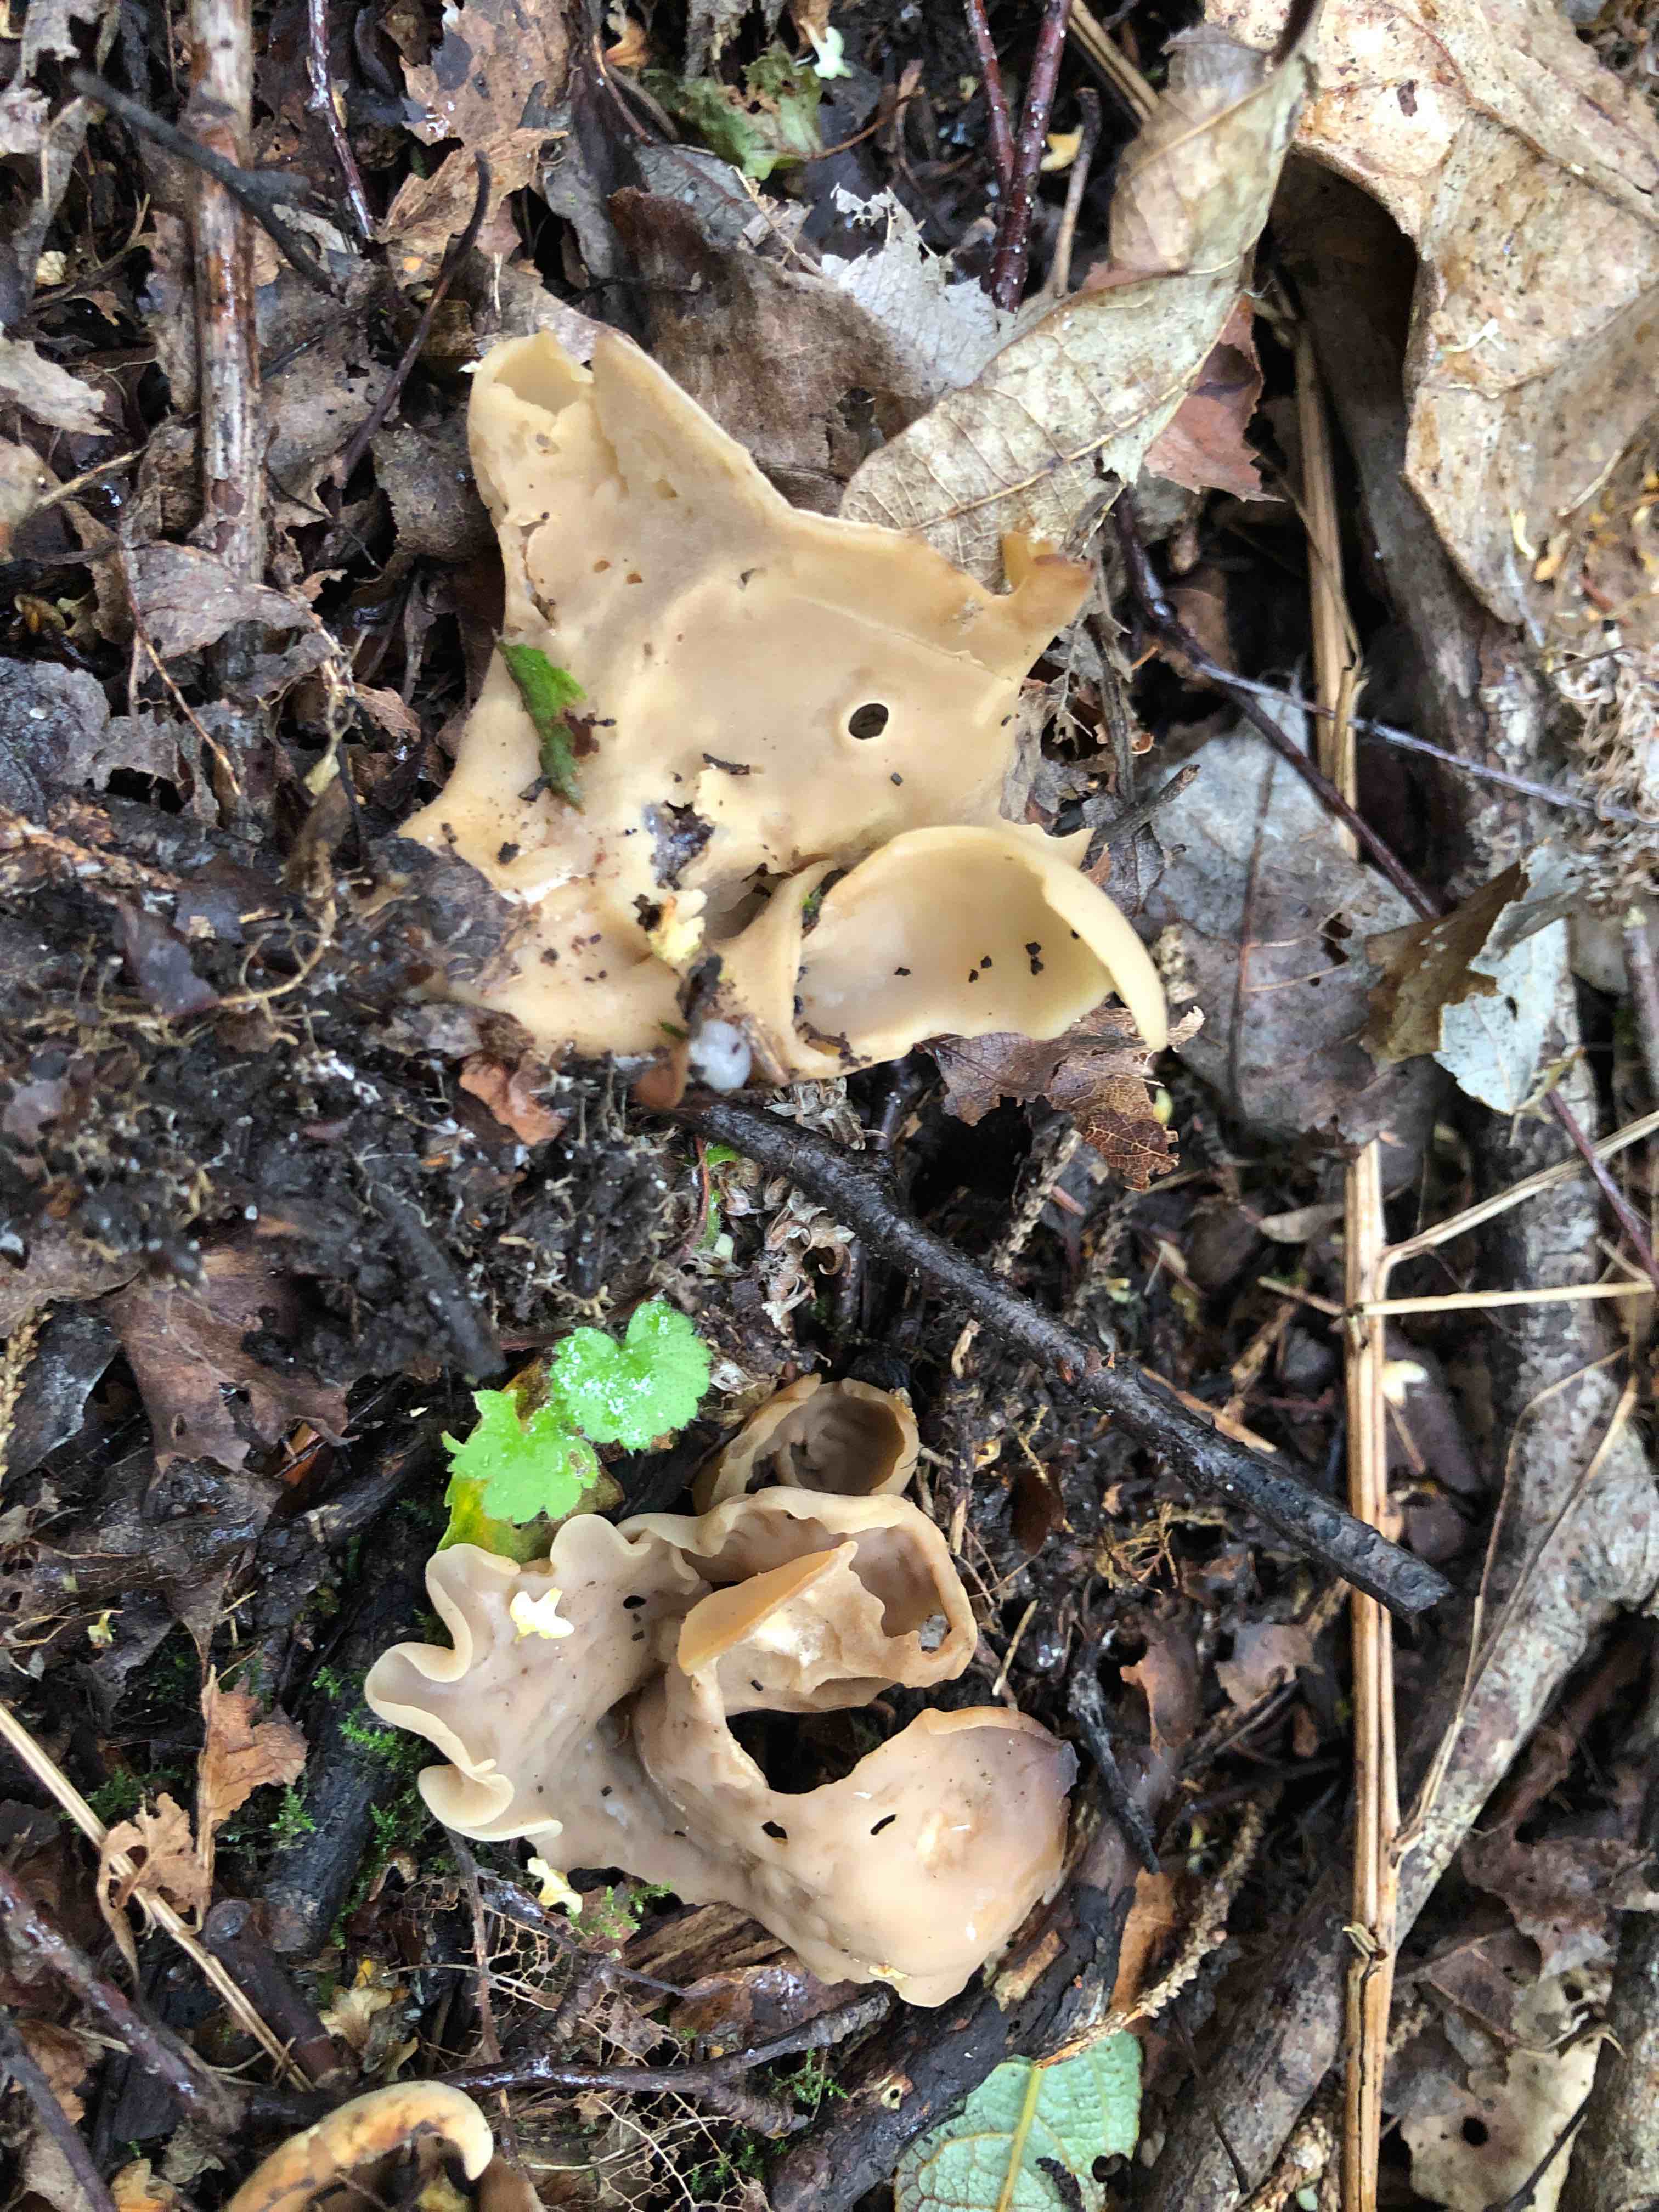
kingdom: Fungi
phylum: Ascomycota
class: Pezizomycetes
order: Pezizales
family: Otideaceae
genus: Otidea
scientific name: Otidea alutacea
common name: læder-ørebæger
